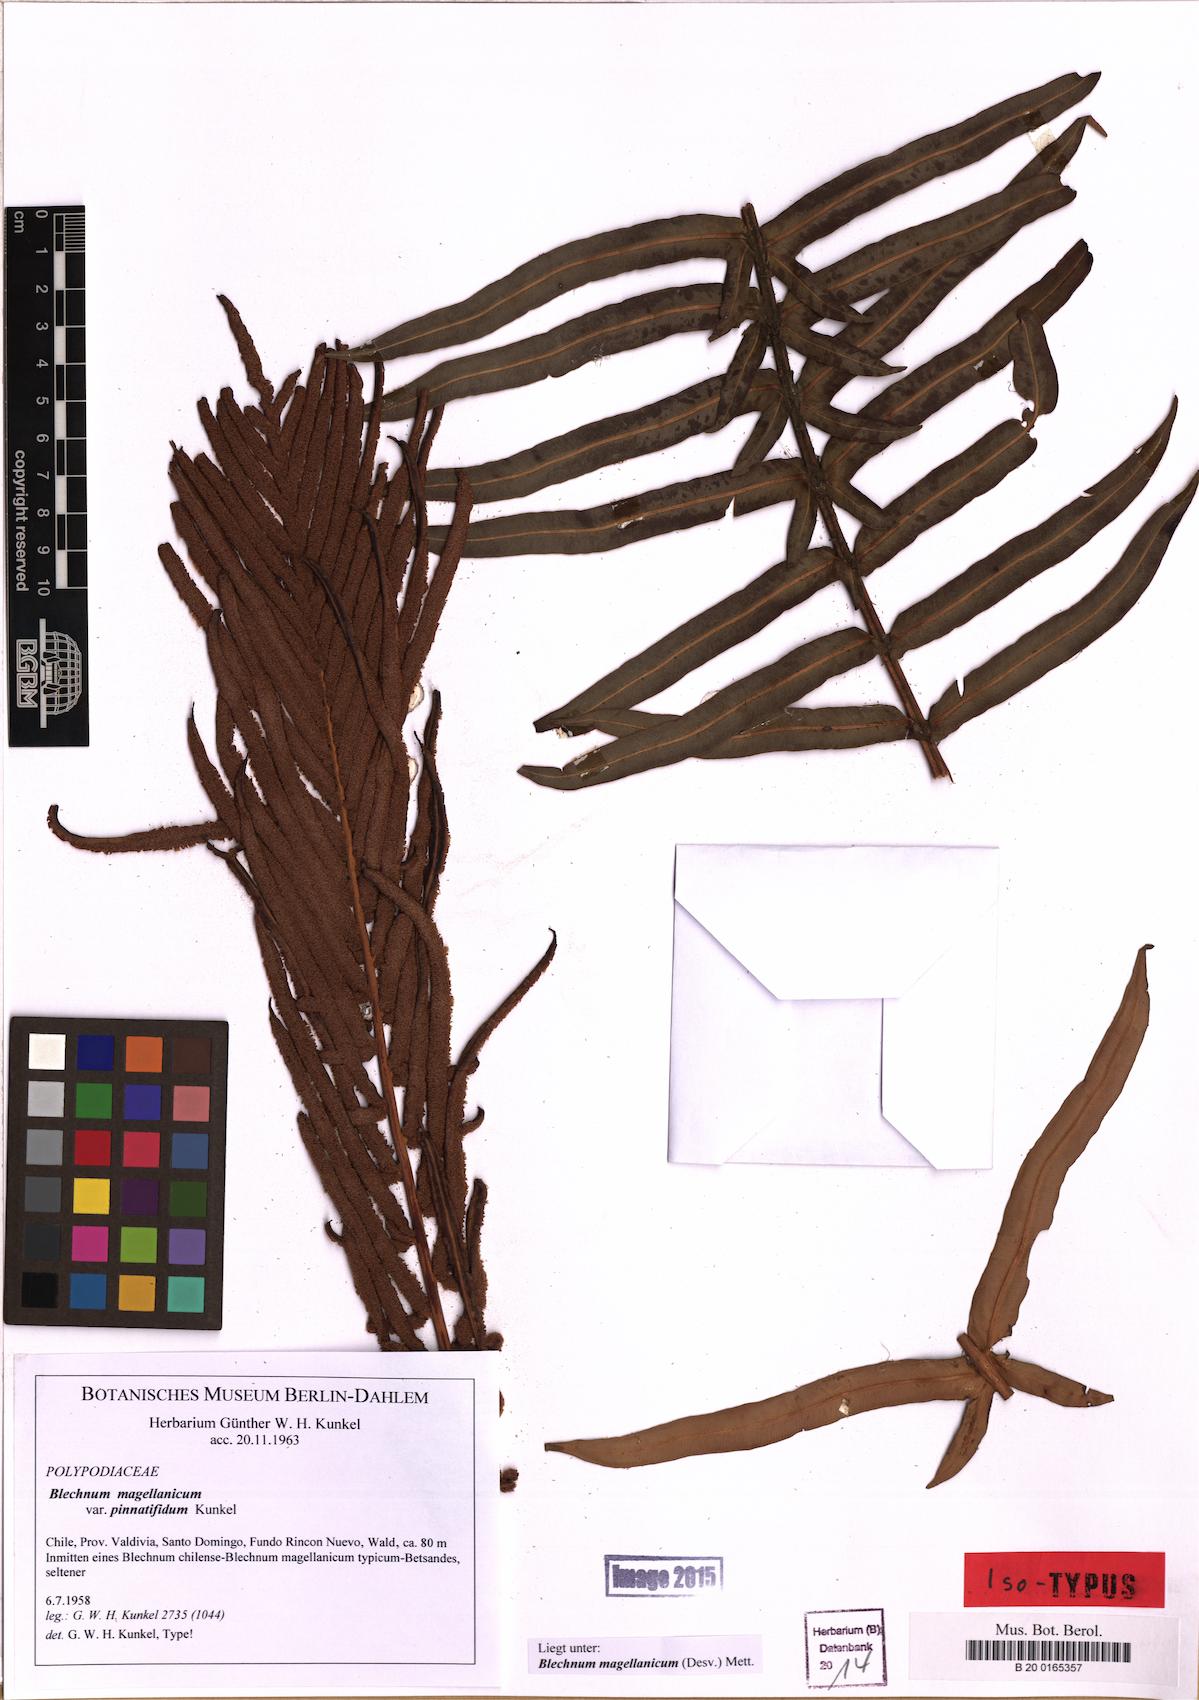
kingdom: Plantae
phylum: Tracheophyta
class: Polypodiopsida
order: Polypodiales
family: Blechnaceae
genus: Lomariocycas
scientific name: Lomariocycas magellanica
